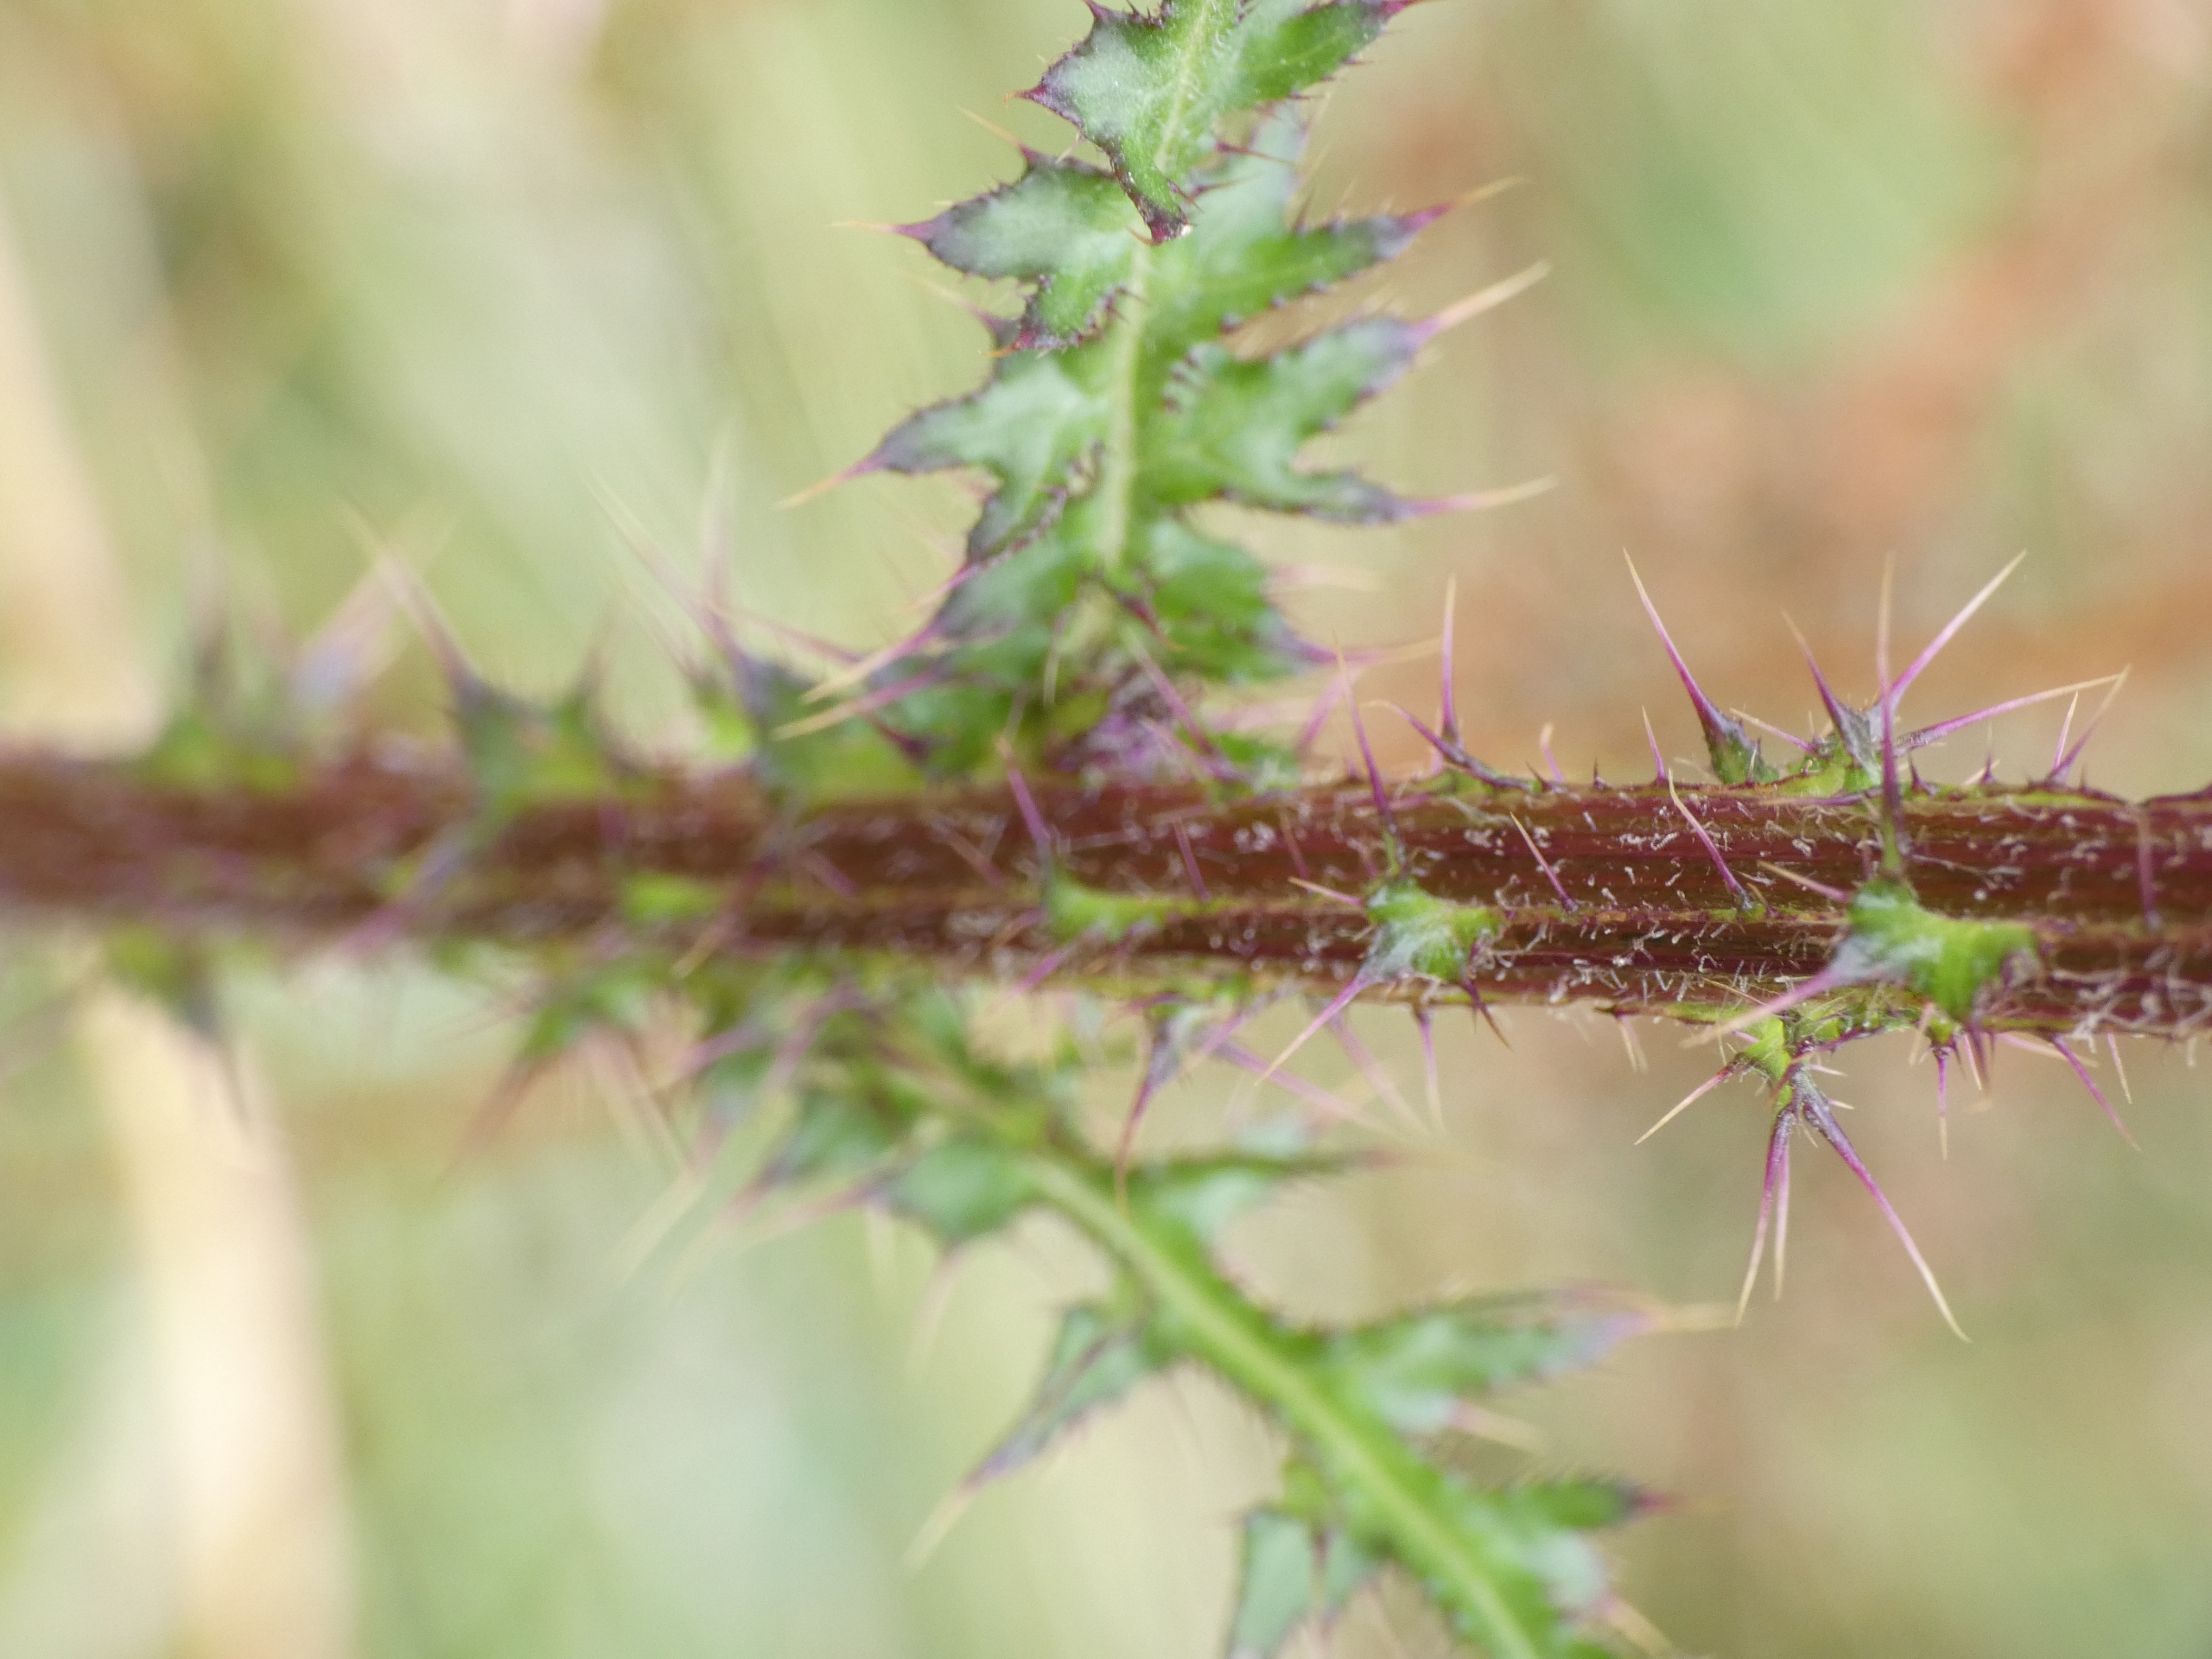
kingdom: Plantae
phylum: Tracheophyta
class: Magnoliopsida
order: Asterales
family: Asteraceae
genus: Cirsium
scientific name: Cirsium palustre
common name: Kær-tidsel
